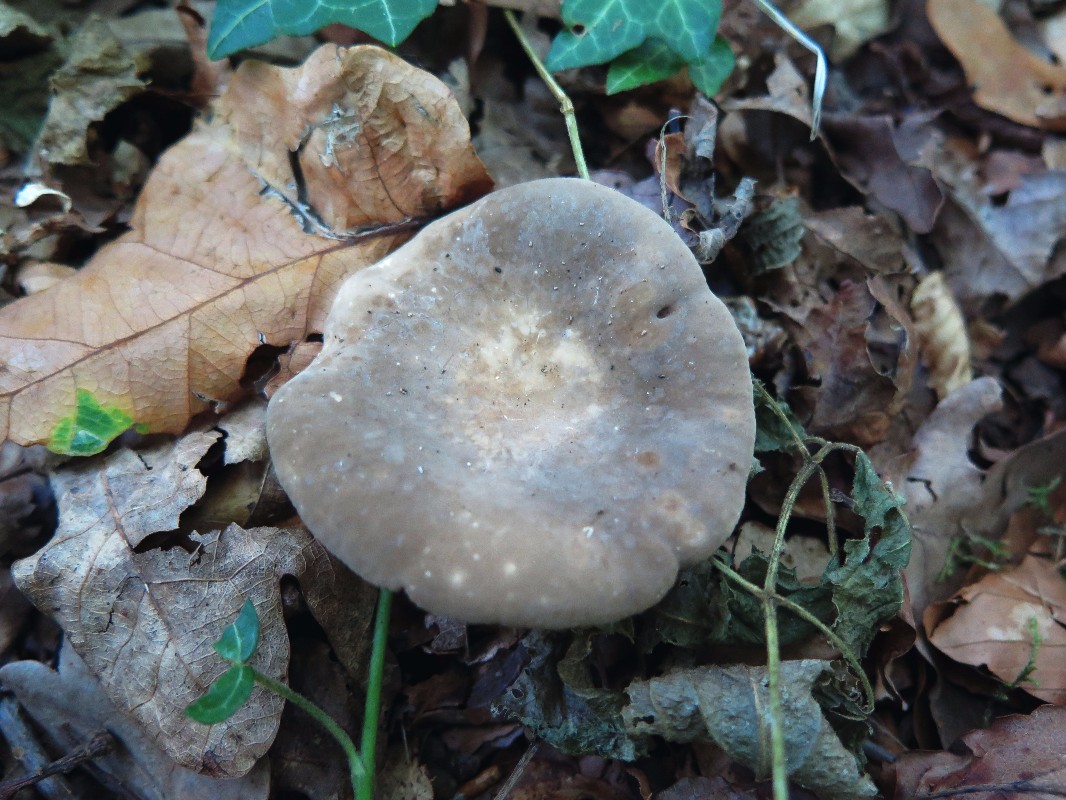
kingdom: Fungi
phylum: Basidiomycota
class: Agaricomycetes
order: Russulales
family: Russulaceae
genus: Lactarius
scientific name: Lactarius azonites
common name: røggrå mælkehat
